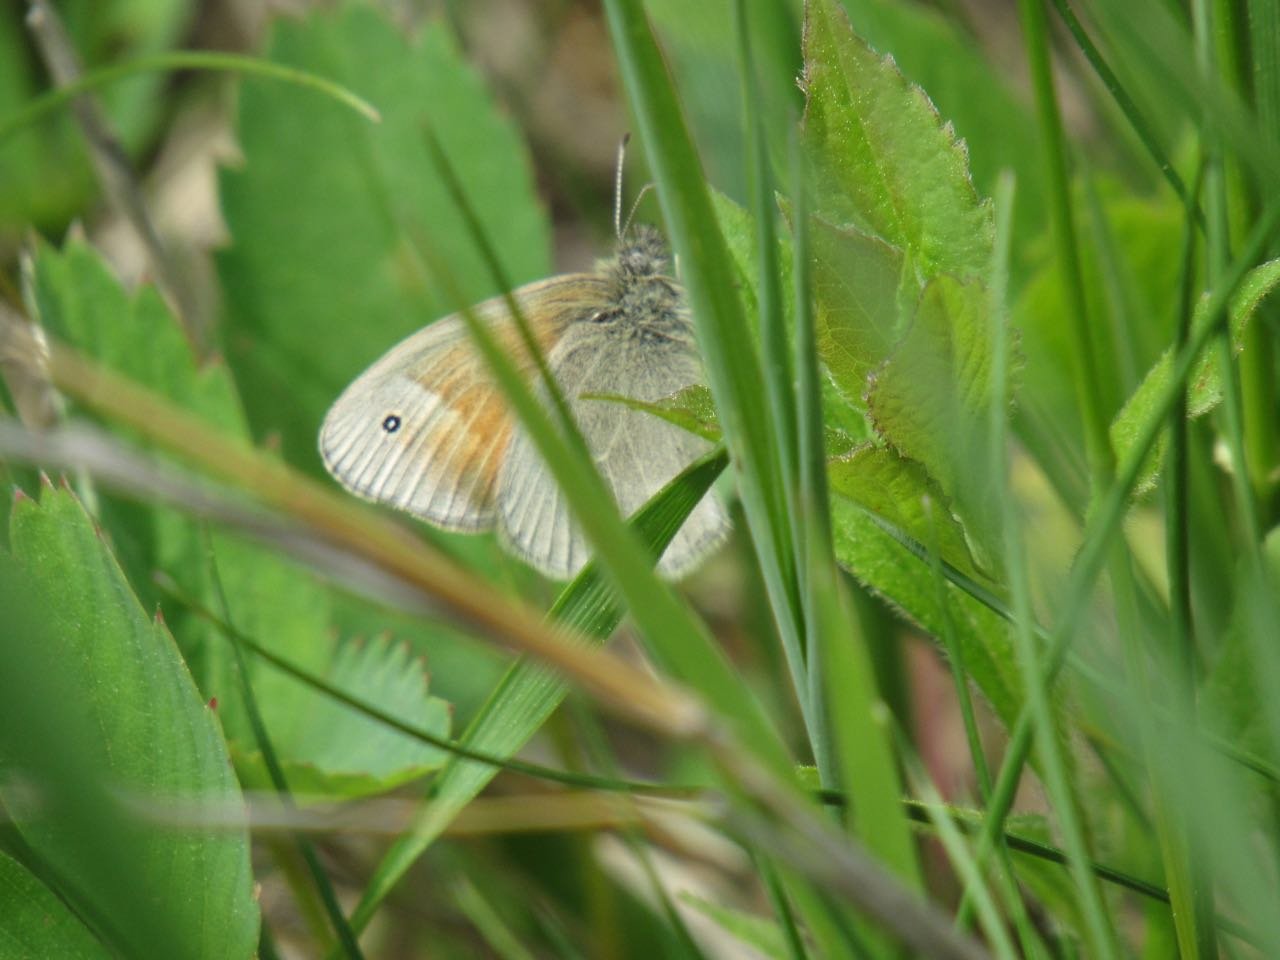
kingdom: Animalia
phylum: Arthropoda
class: Insecta
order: Lepidoptera
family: Nymphalidae
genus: Coenonympha
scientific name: Coenonympha tullia
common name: Large Heath
